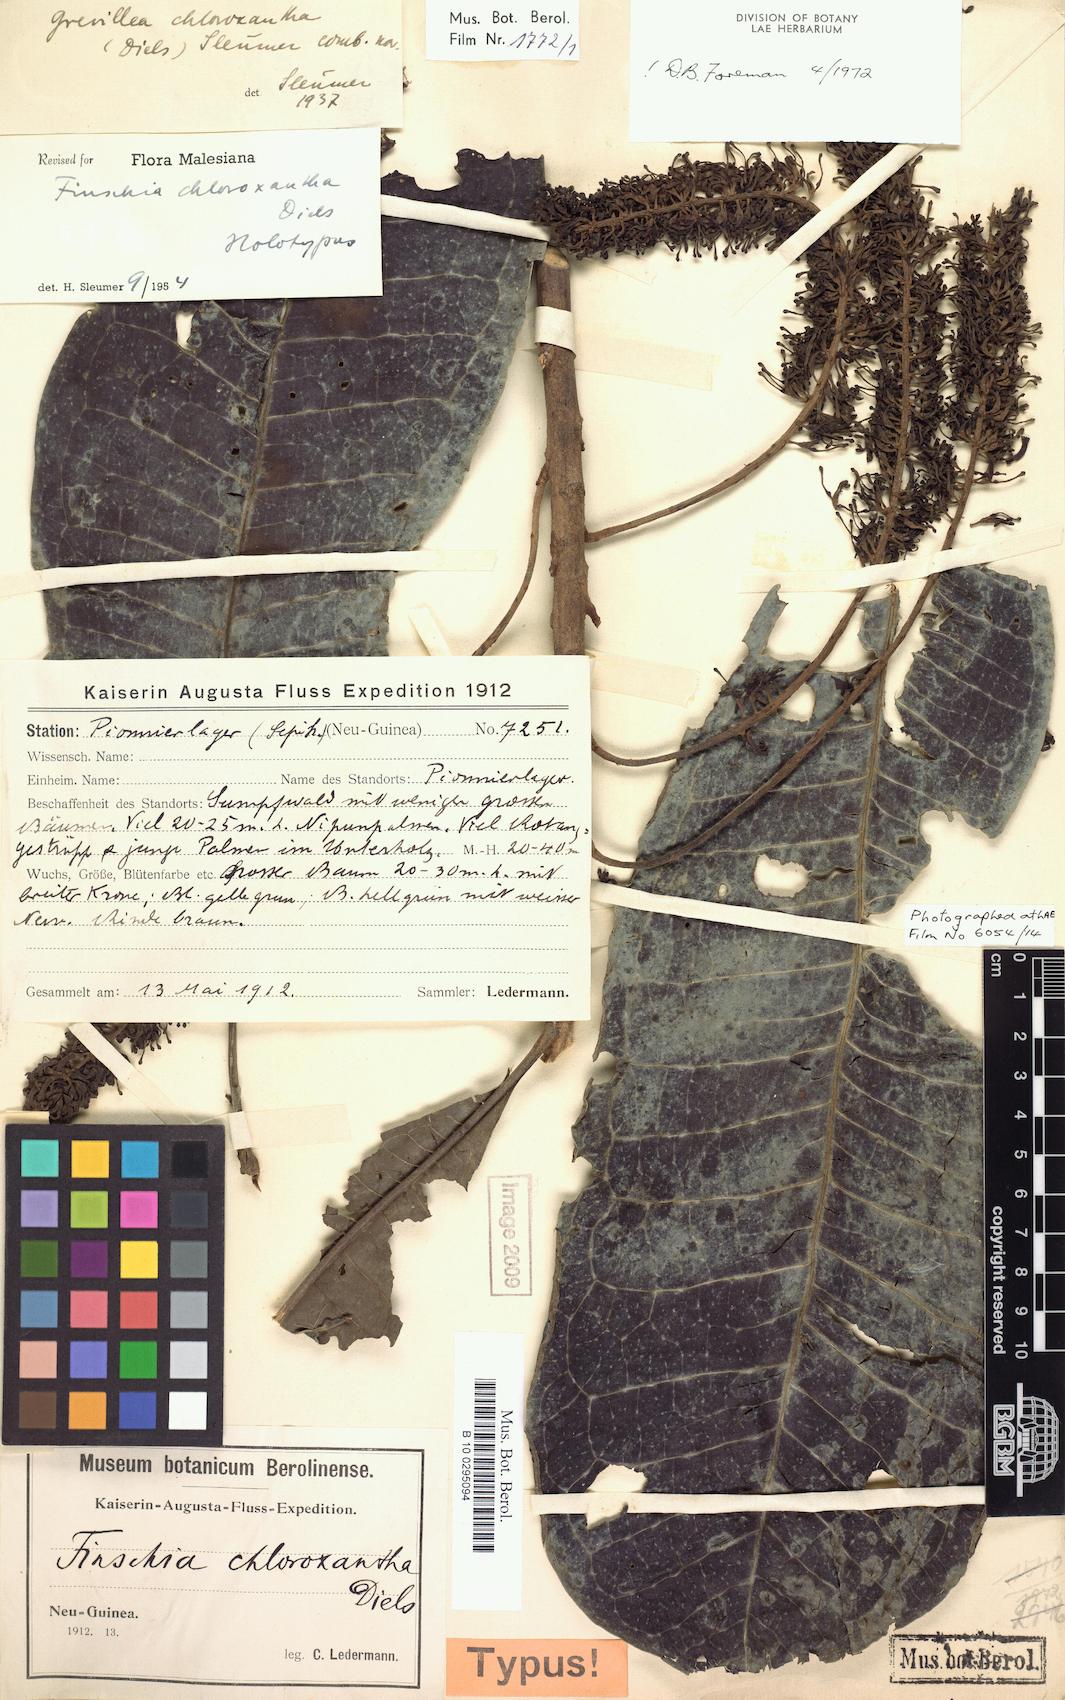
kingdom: Plantae
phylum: Tracheophyta
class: Magnoliopsida
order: Proteales
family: Proteaceae
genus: Finschia
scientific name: Finschia chloroxantha
